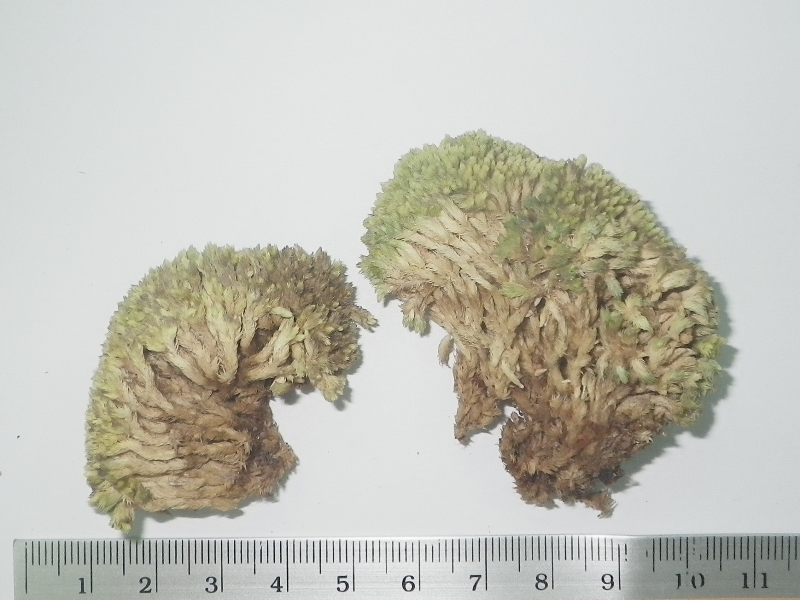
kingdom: Plantae
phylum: Bryophyta
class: Bryopsida
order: Dicranales
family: Leucobryaceae
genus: Leucobryum
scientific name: Leucobryum aduncum
